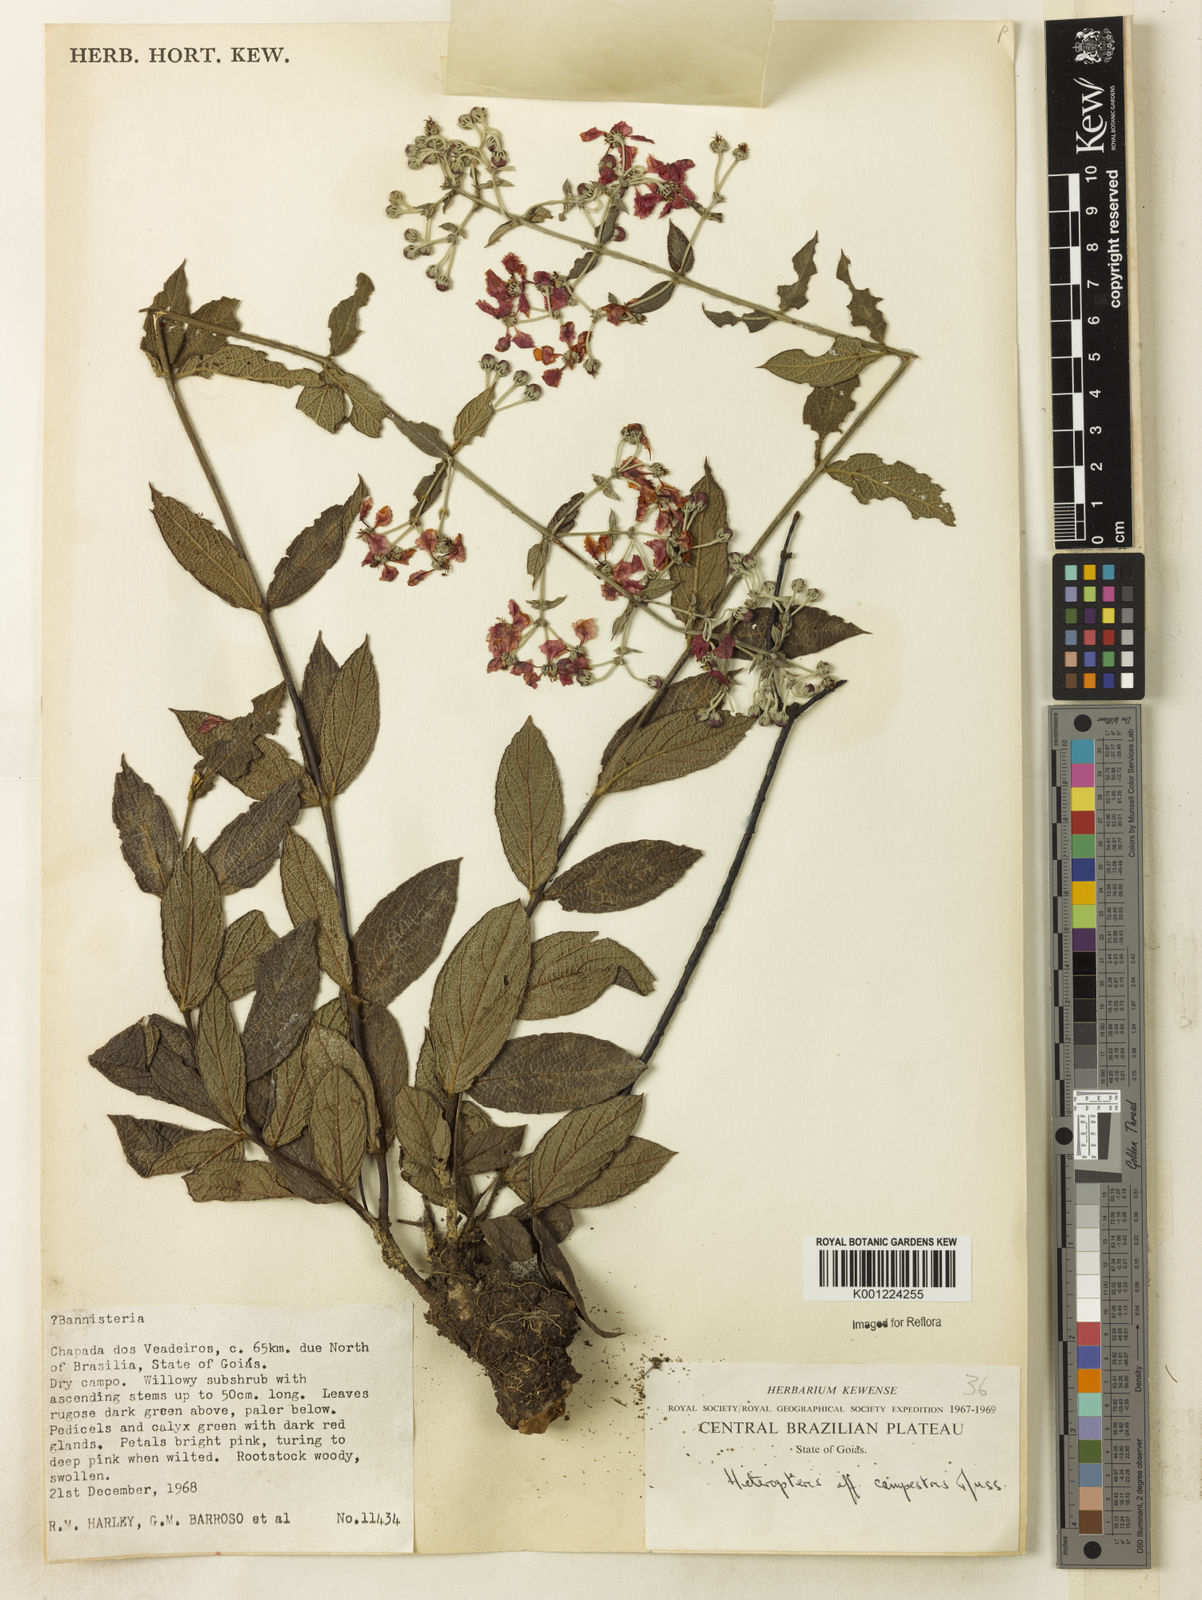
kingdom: Plantae
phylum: Tracheophyta
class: Magnoliopsida
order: Malpighiales
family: Malpighiaceae
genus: Banisteriopsis
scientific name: Banisteriopsis campestris
